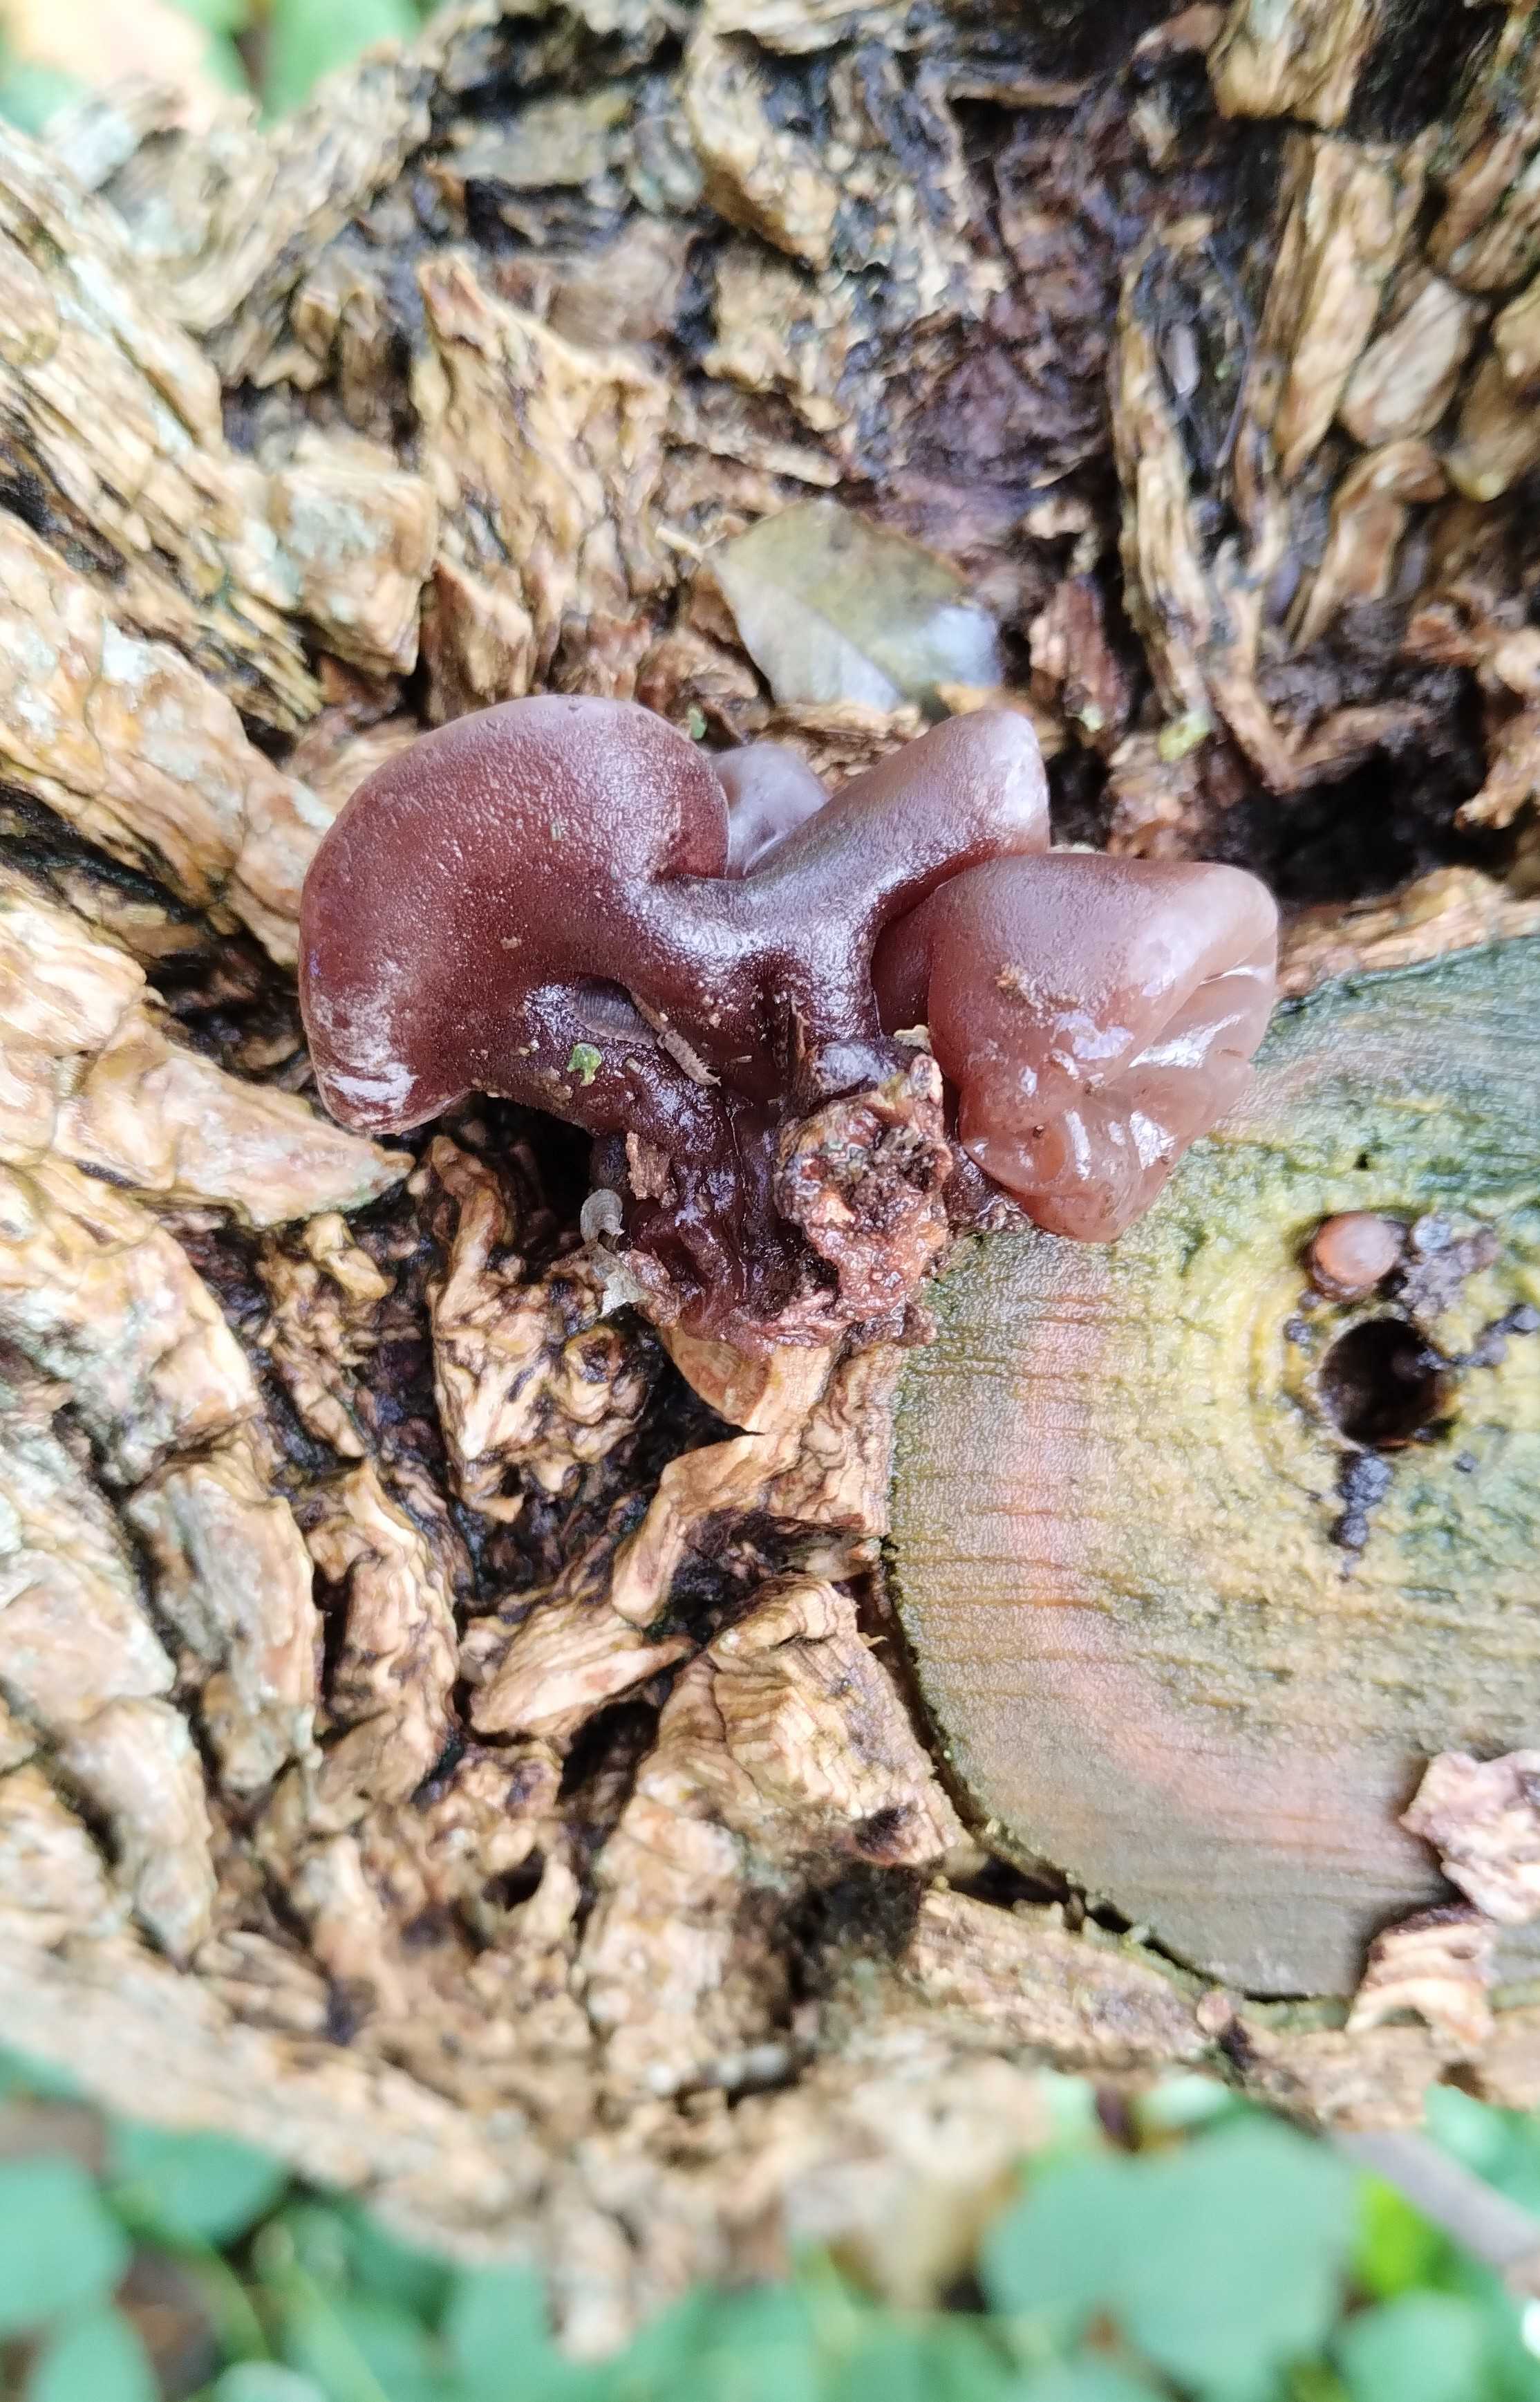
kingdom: Fungi
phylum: Basidiomycota
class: Agaricomycetes
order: Auriculariales
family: Auriculariaceae
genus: Auricularia
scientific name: Auricularia auricula-judae
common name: almindelig judasøre
